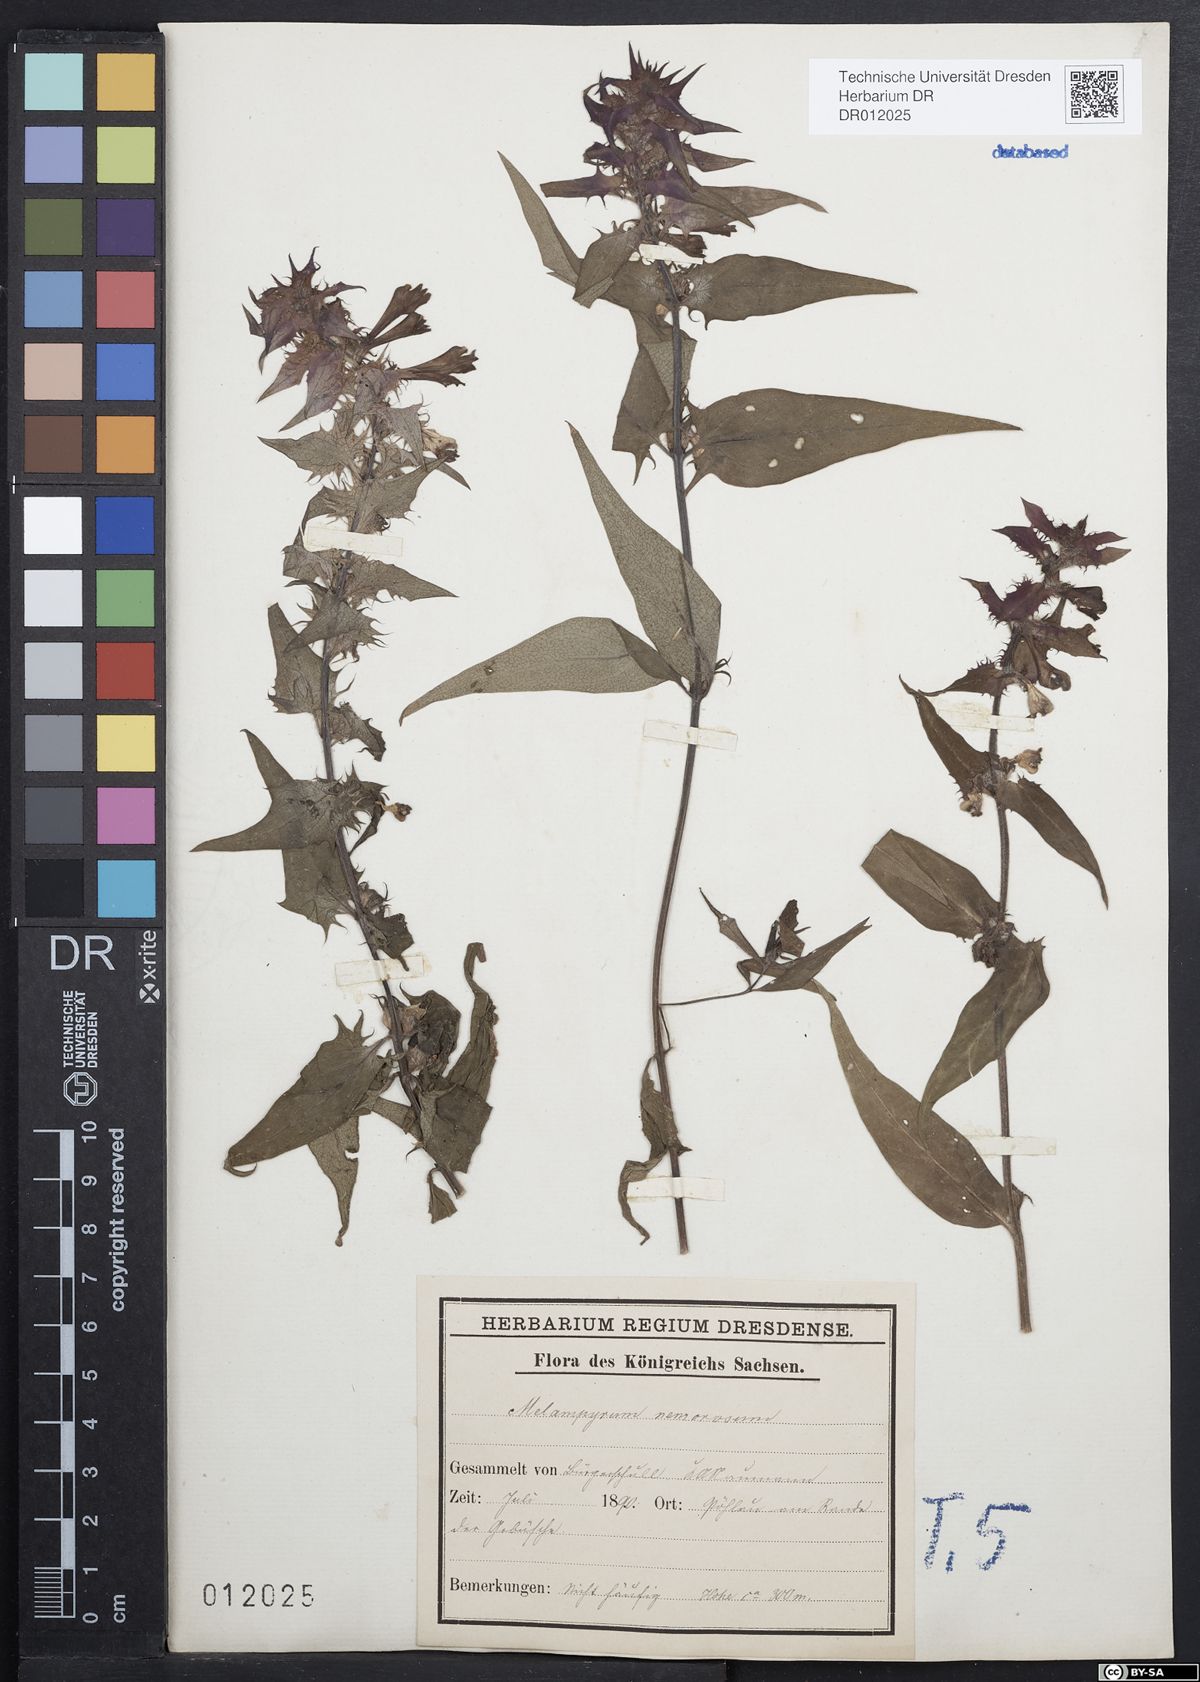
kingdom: Plantae
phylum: Tracheophyta
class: Magnoliopsida
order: Lamiales
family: Orobanchaceae
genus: Melampyrum
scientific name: Melampyrum nemorosum
